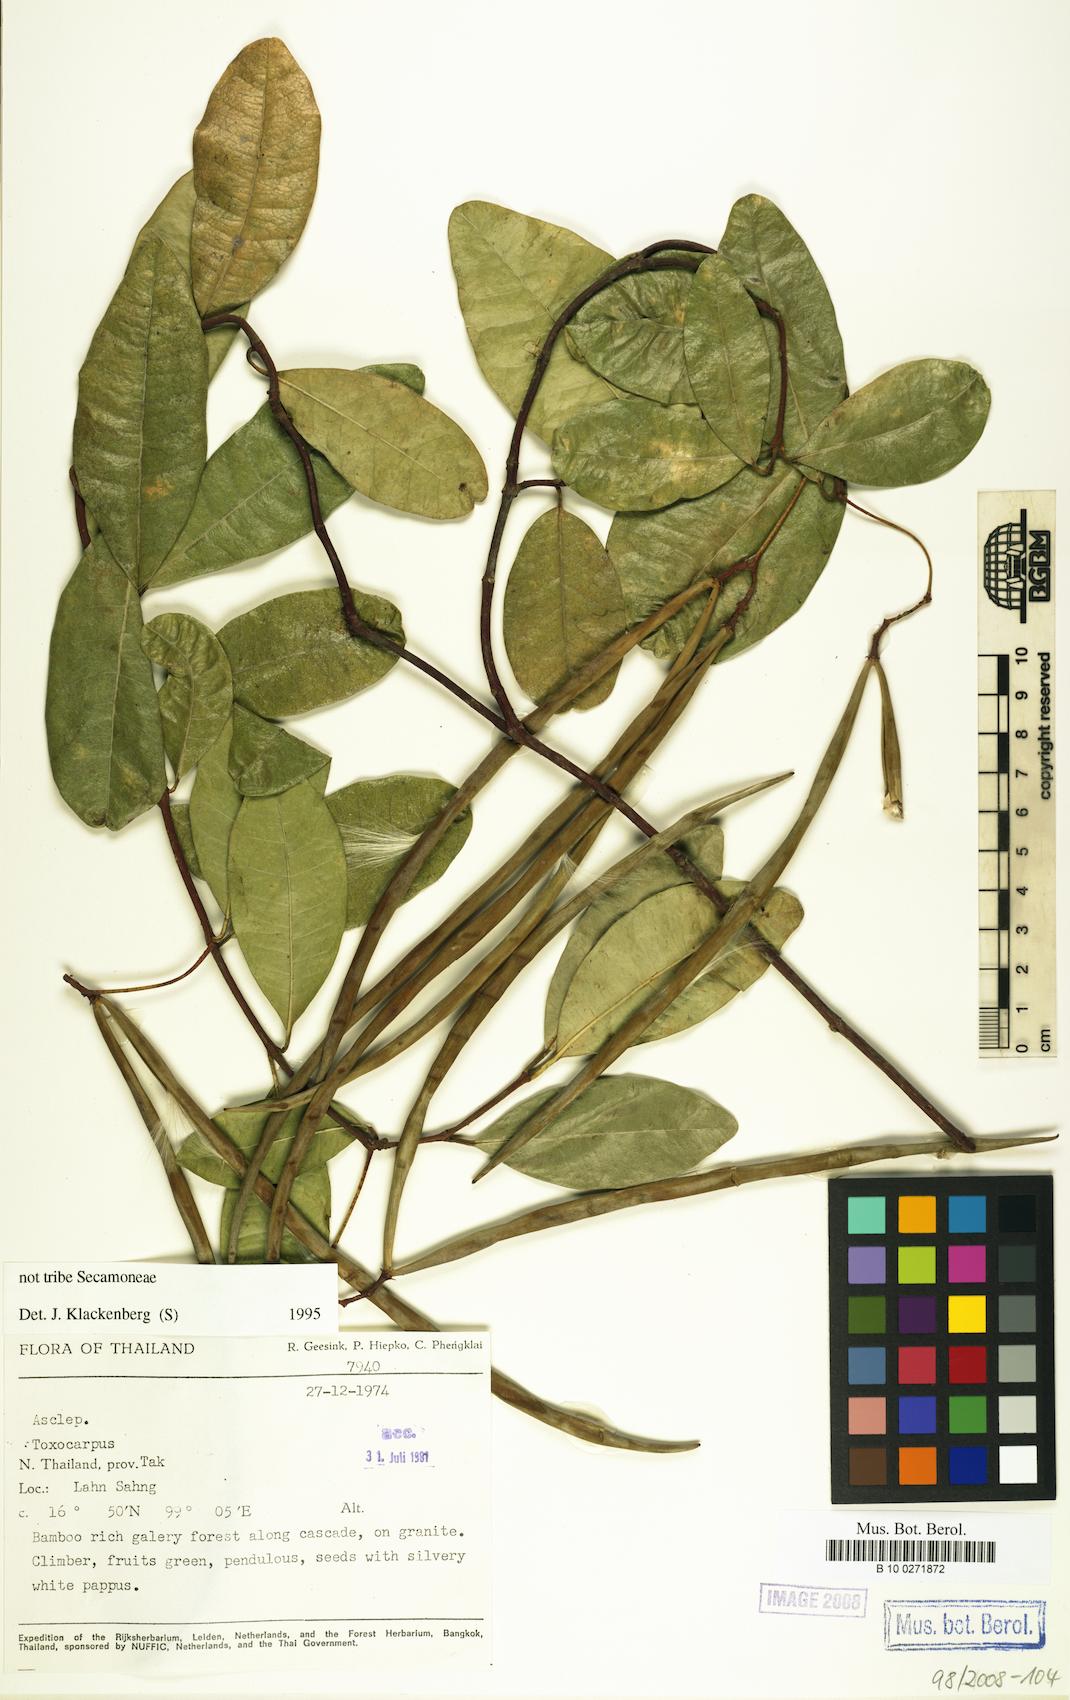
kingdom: Plantae
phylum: Tracheophyta
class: Magnoliopsida
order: Gentianales
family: Asclepiadaceae
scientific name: Asclepiadaceae
